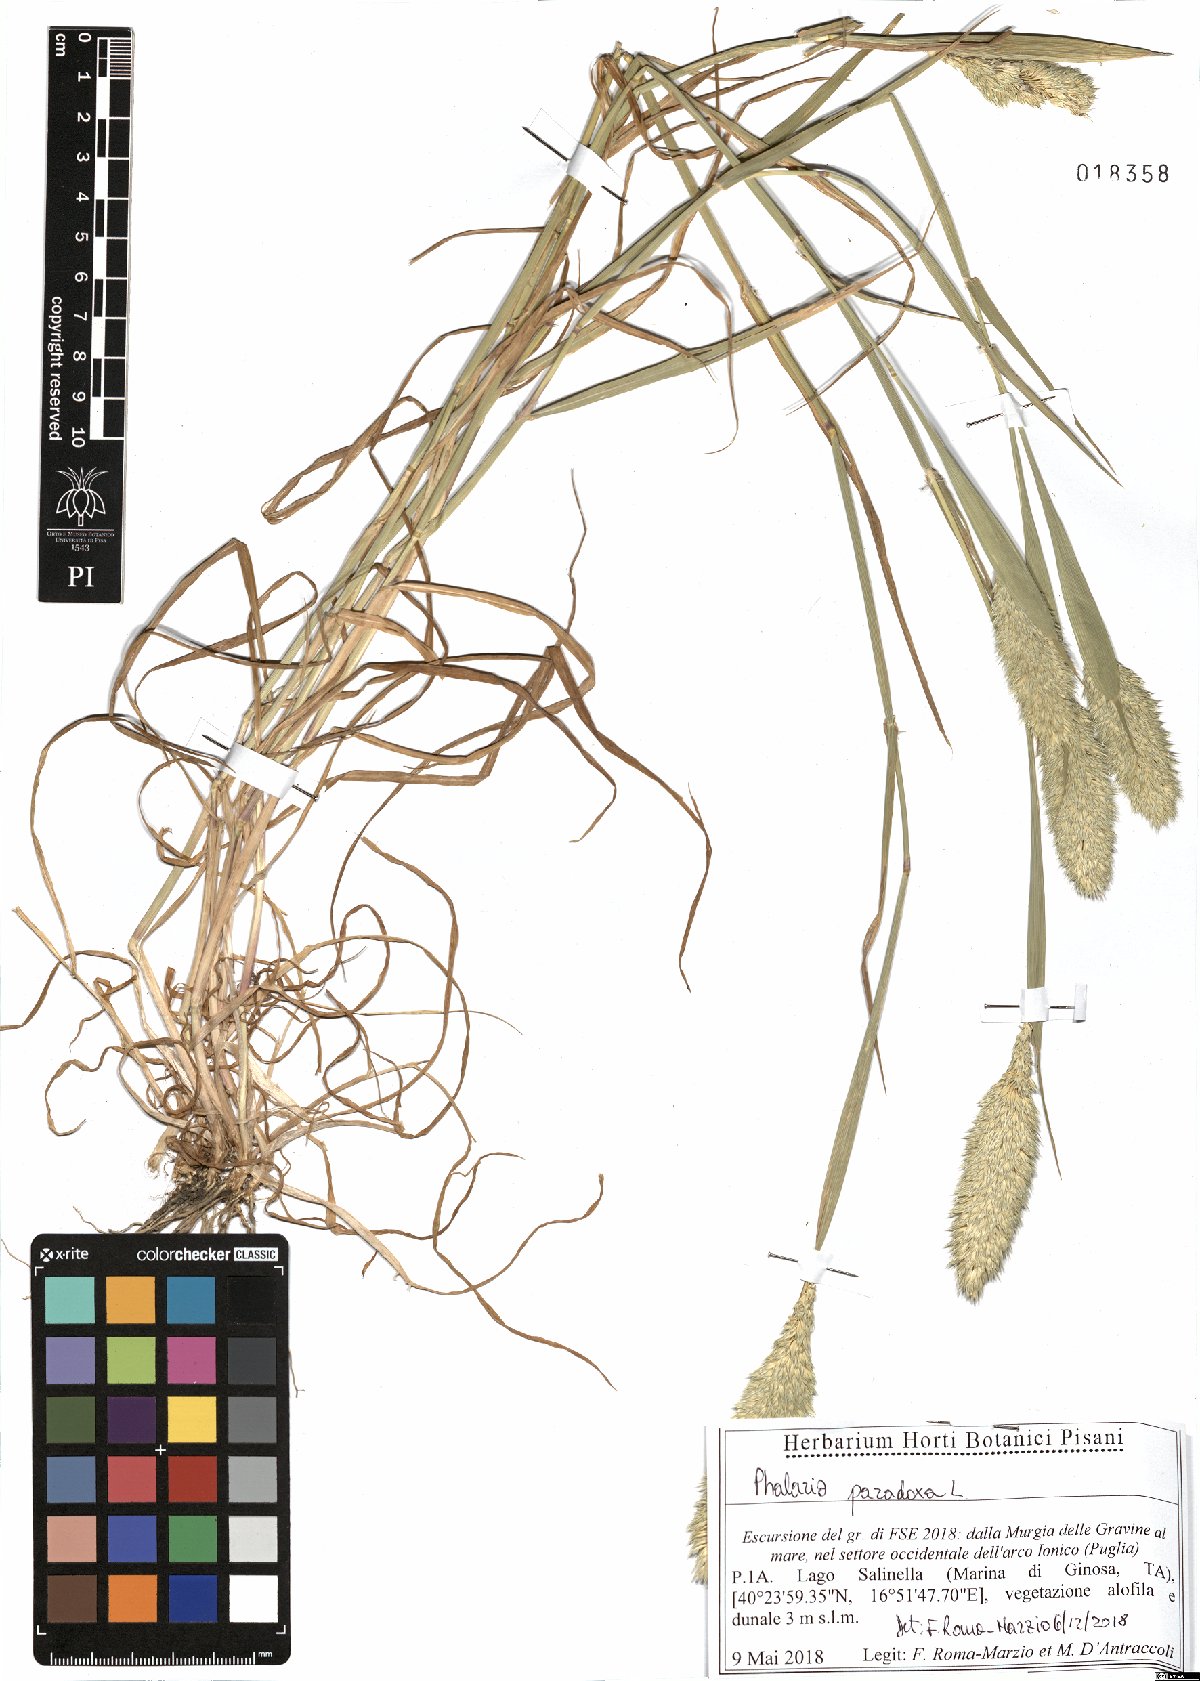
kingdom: Plantae
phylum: Tracheophyta
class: Liliopsida
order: Poales
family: Poaceae
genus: Phalaris
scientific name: Phalaris paradoxa
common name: Awned canary-grass
